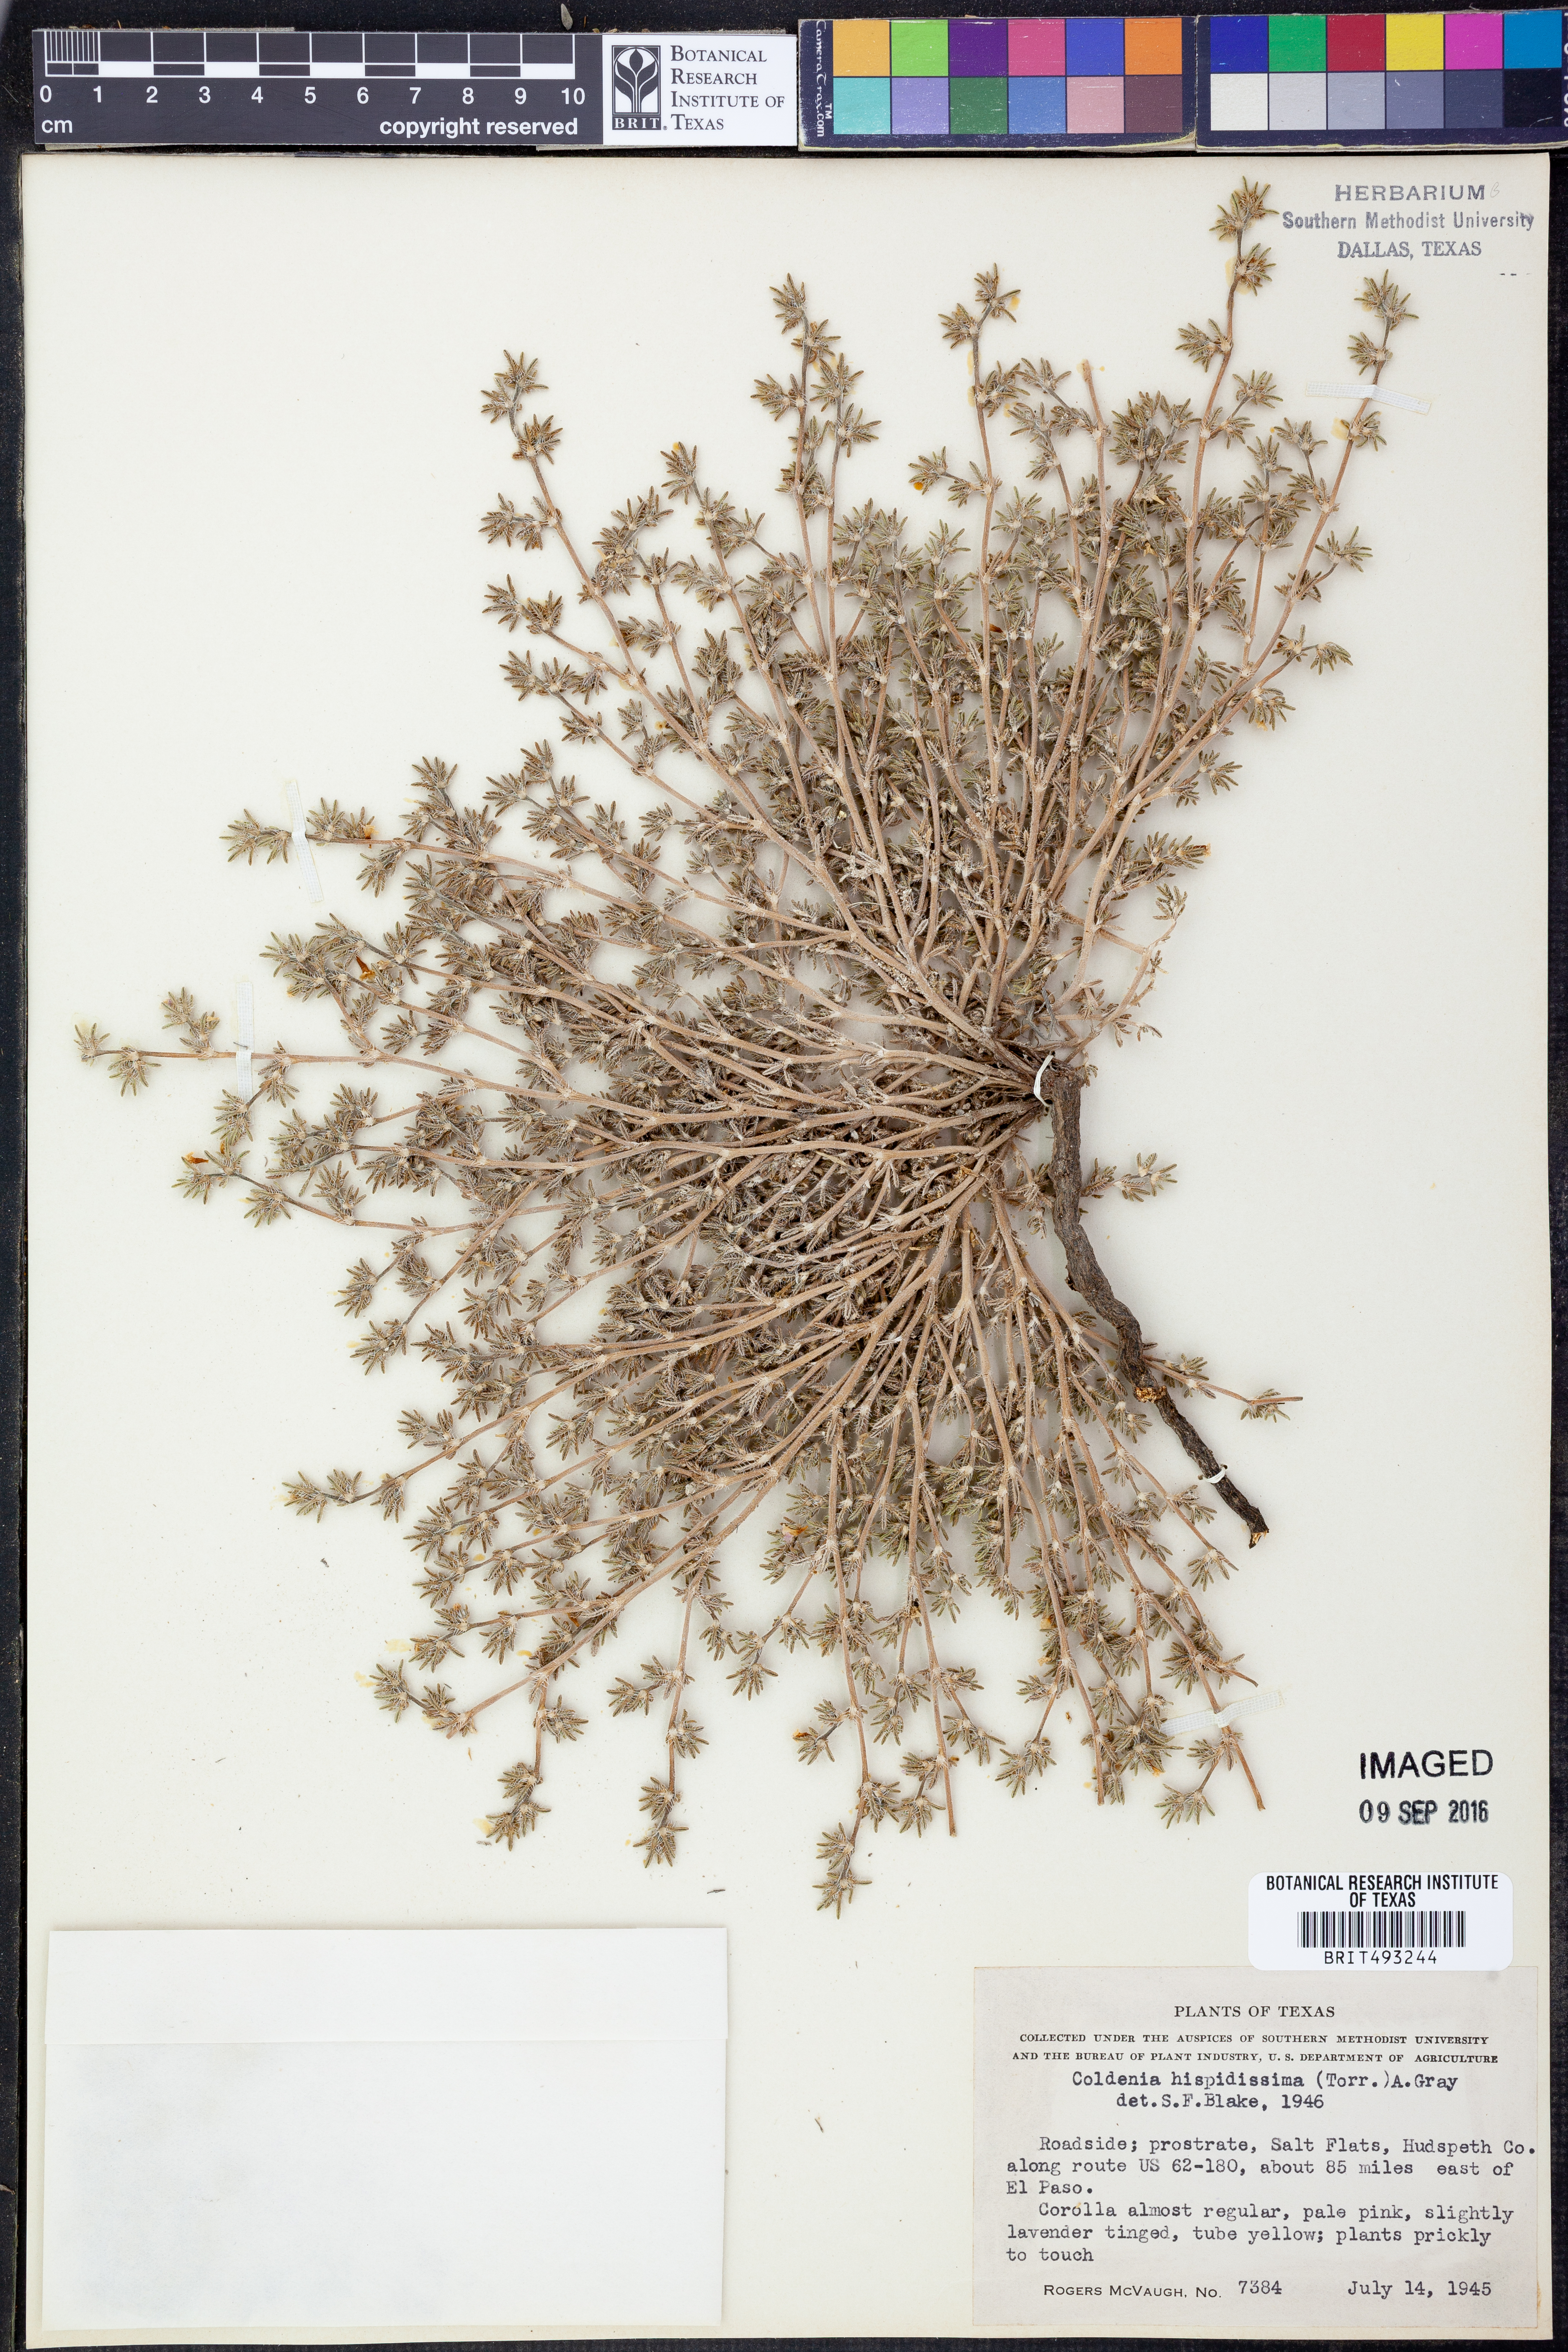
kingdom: Plantae
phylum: Tracheophyta
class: Magnoliopsida
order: Boraginales
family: Ehretiaceae
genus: Tiquilia
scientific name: Tiquilia hispidissima
